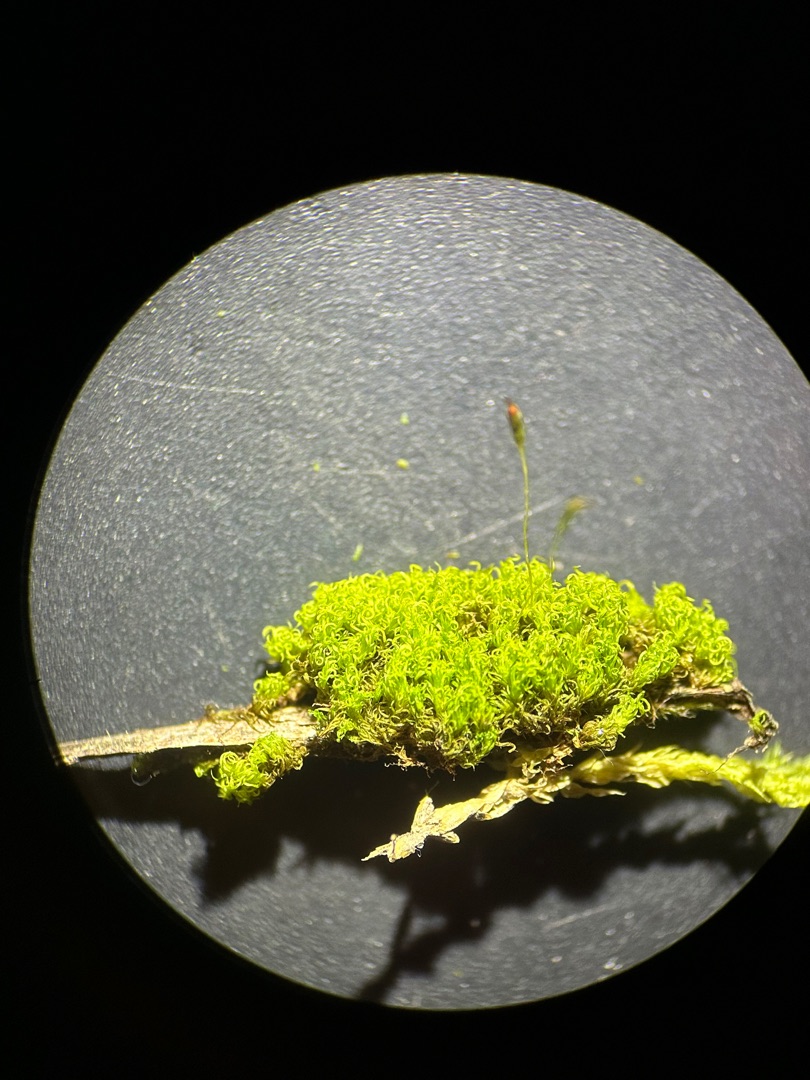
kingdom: Plantae
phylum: Bryophyta
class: Bryopsida
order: Dicranales
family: Rhabdoweisiaceae
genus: Dicranoweisia
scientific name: Dicranoweisia cirrata
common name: Almindelig krøltuemos
